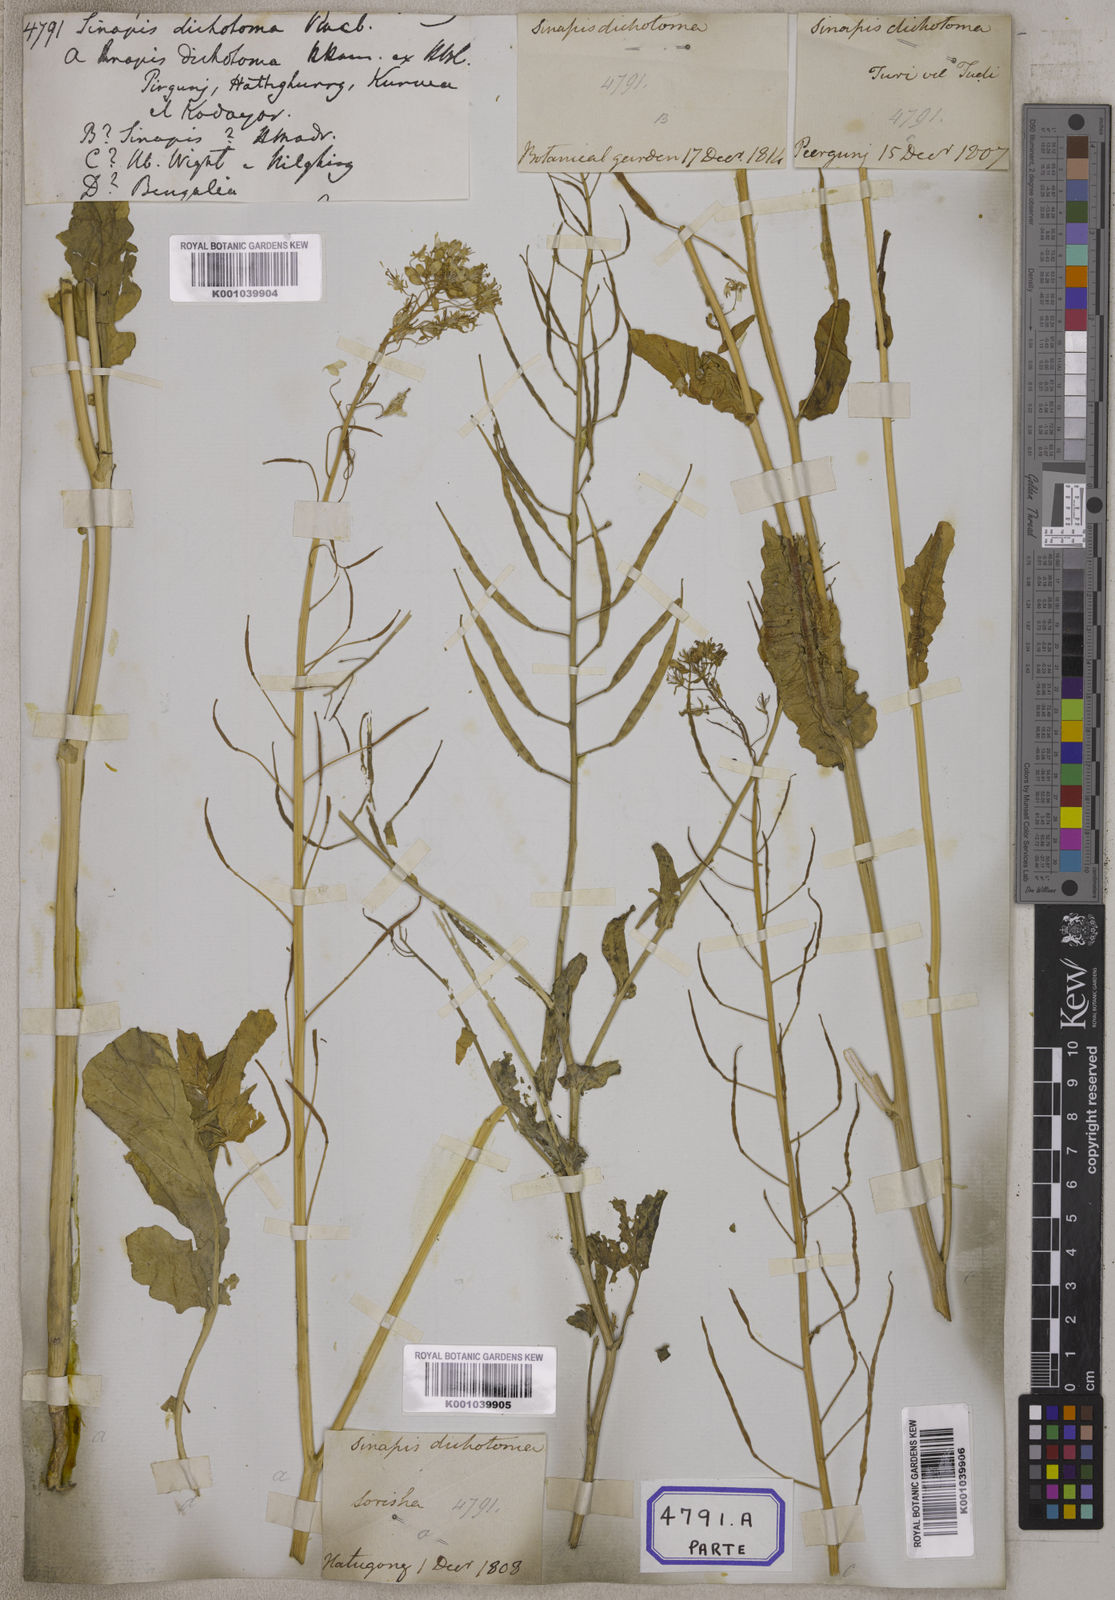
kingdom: Plantae
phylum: Tracheophyta
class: Magnoliopsida
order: Brassicales
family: Brassicaceae
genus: Brassica
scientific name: Brassica rapa
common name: Field mustard
